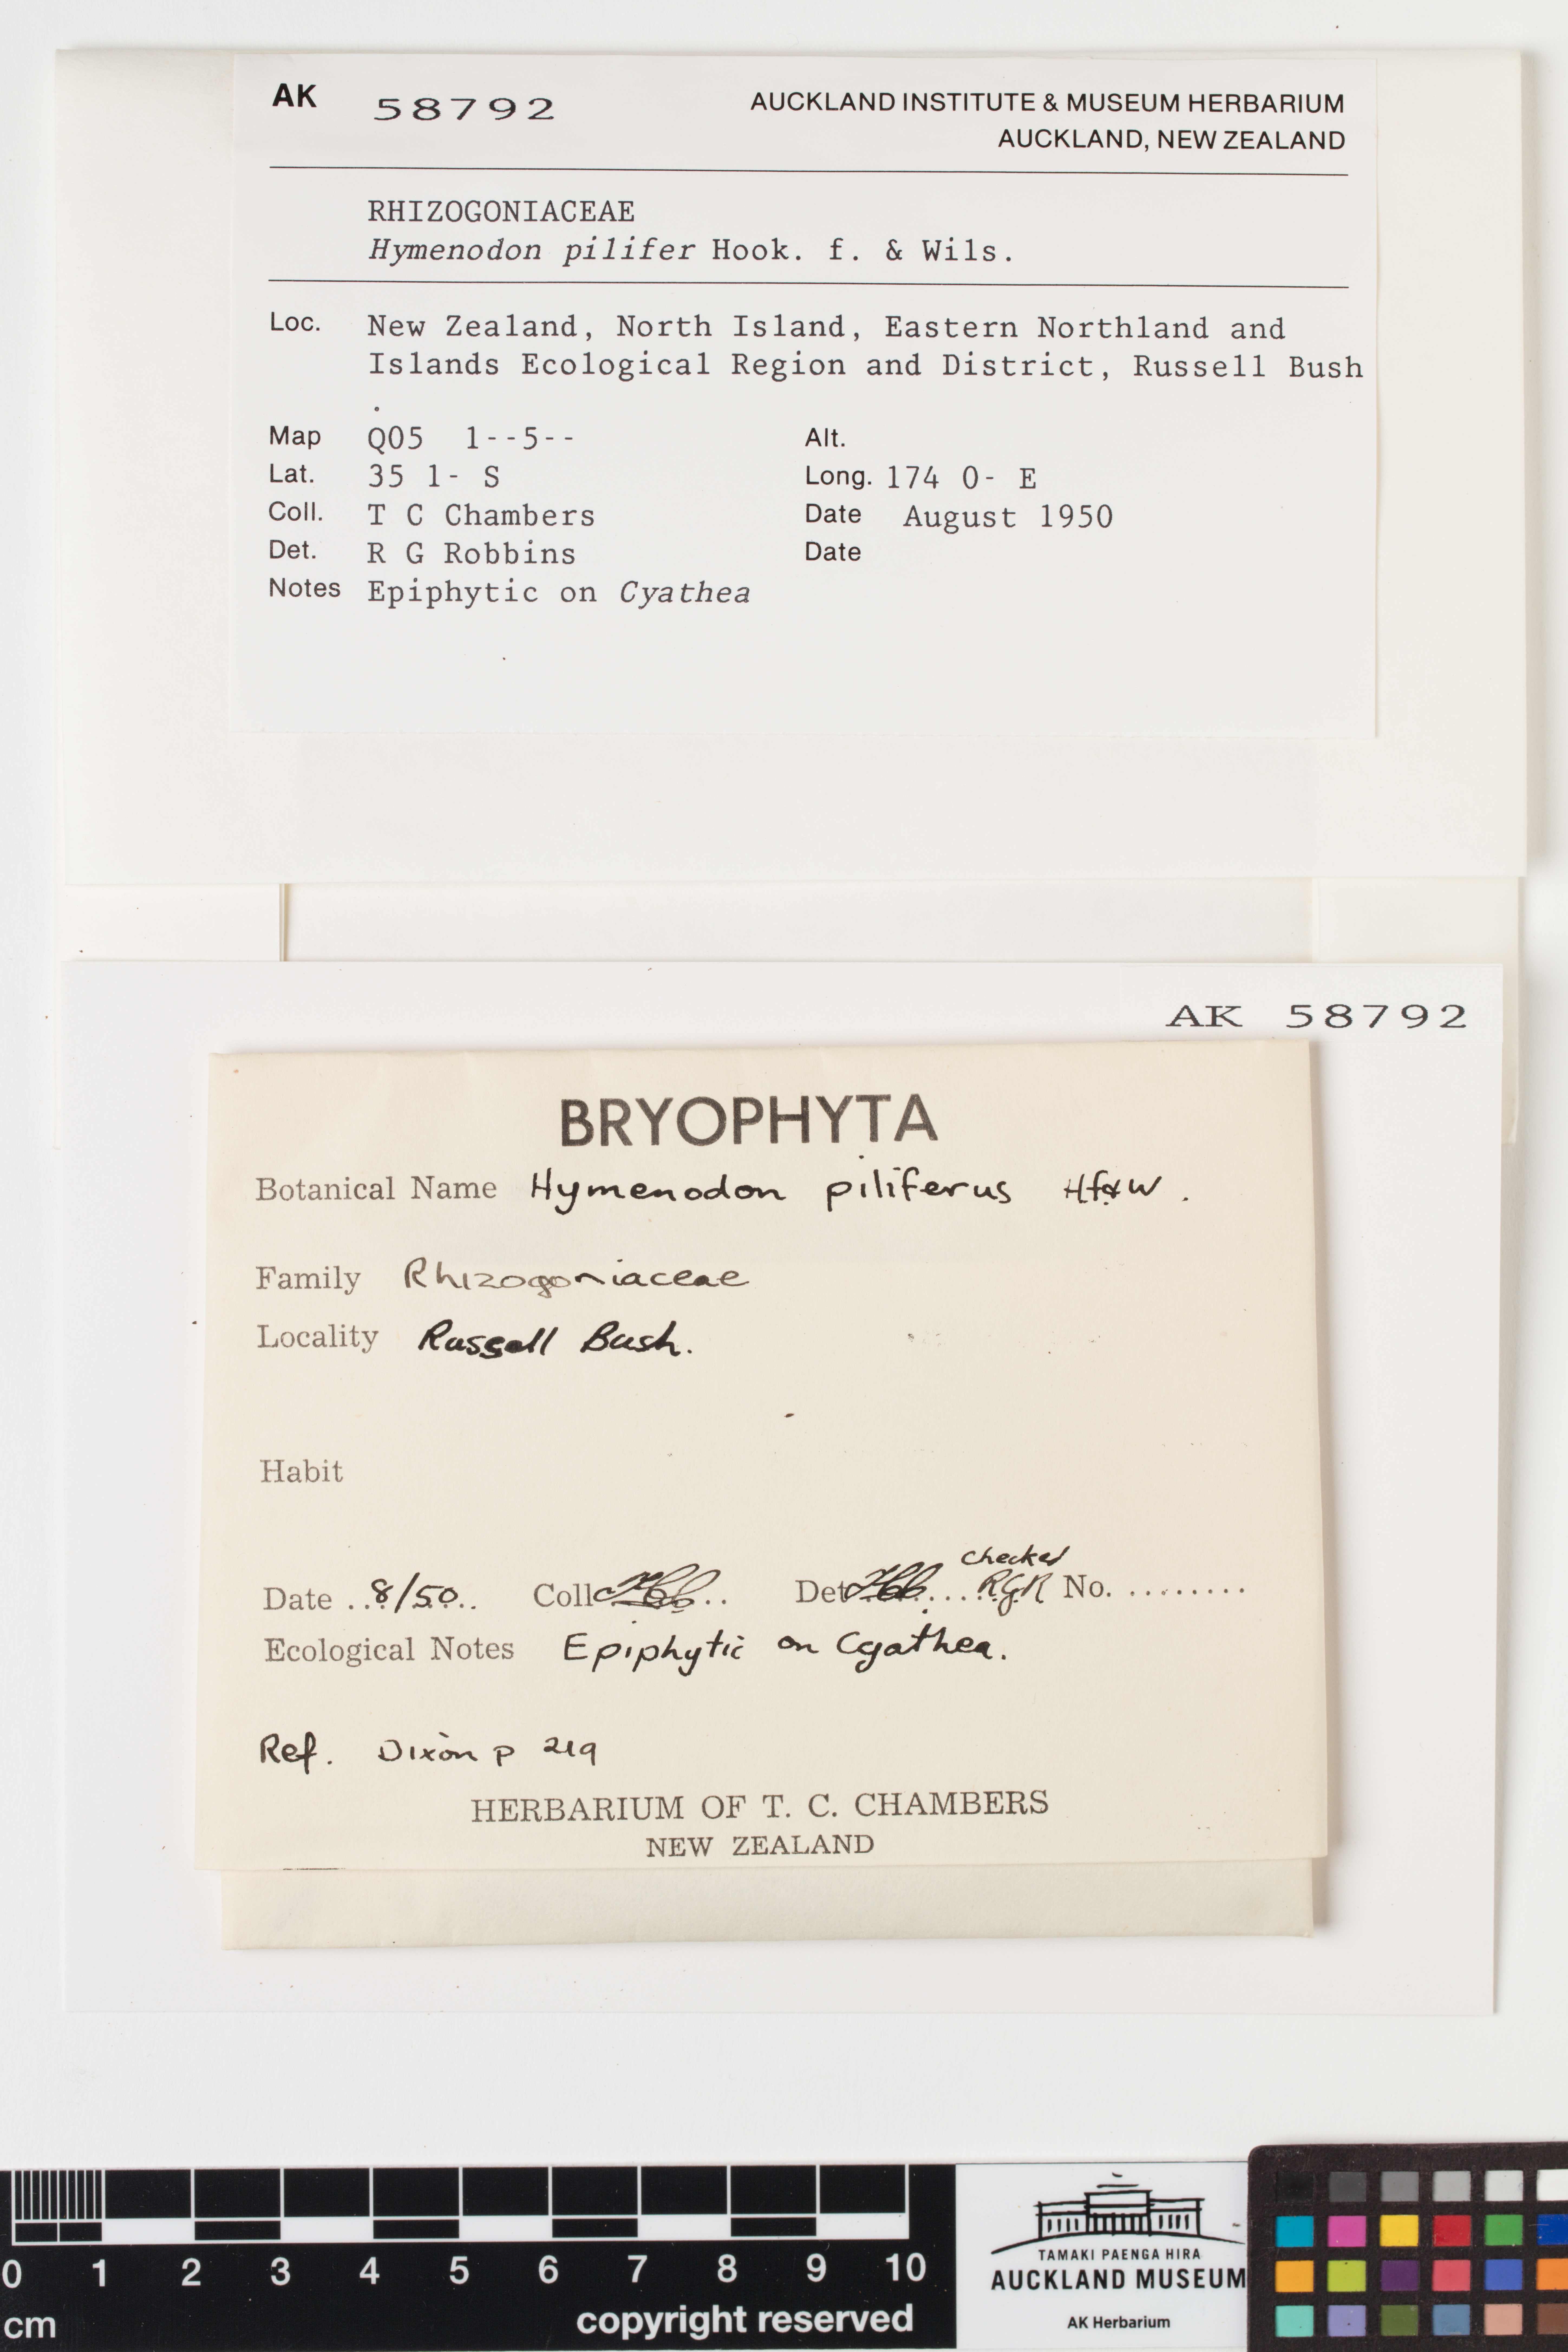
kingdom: Plantae
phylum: Bryophyta
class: Bryopsida
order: Orthodontiales
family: Orthodontiaceae
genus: Hymenodon
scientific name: Hymenodon pilifer
